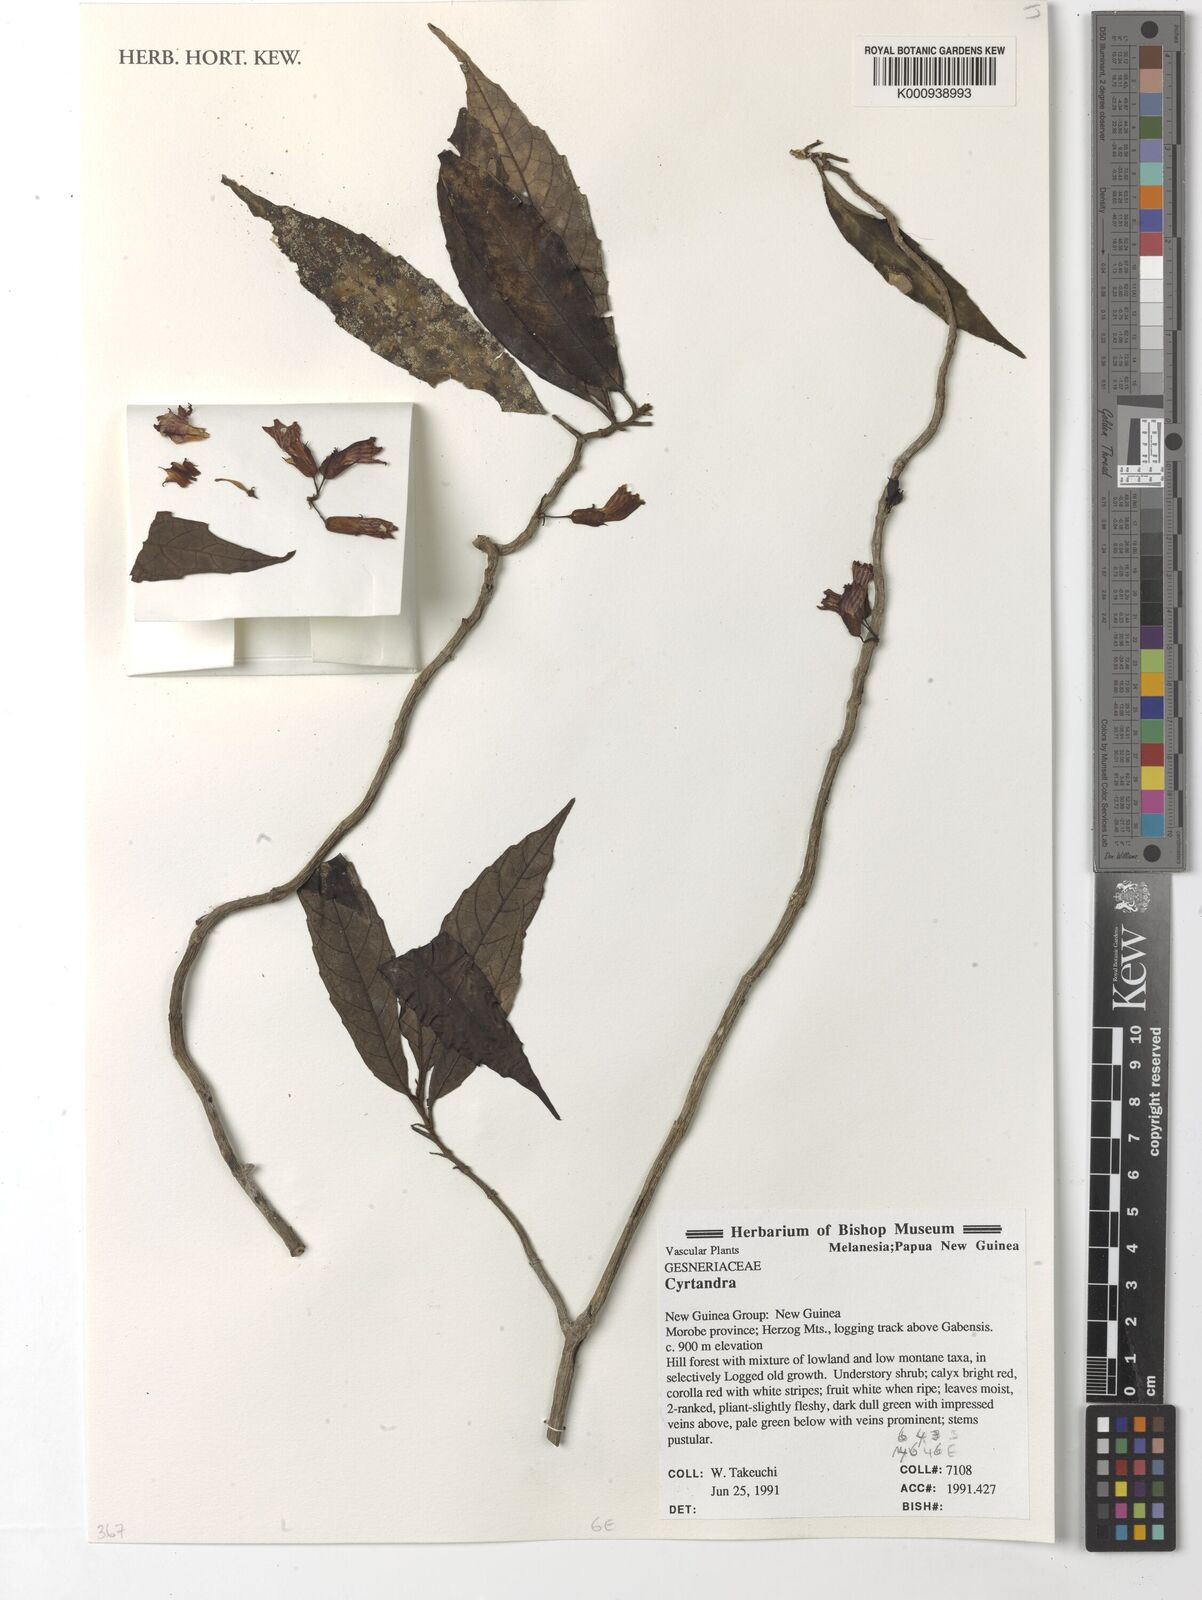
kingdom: Plantae
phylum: Tracheophyta
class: Magnoliopsida
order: Lamiales
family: Gesneriaceae
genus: Cyrtandra
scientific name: Cyrtandra
